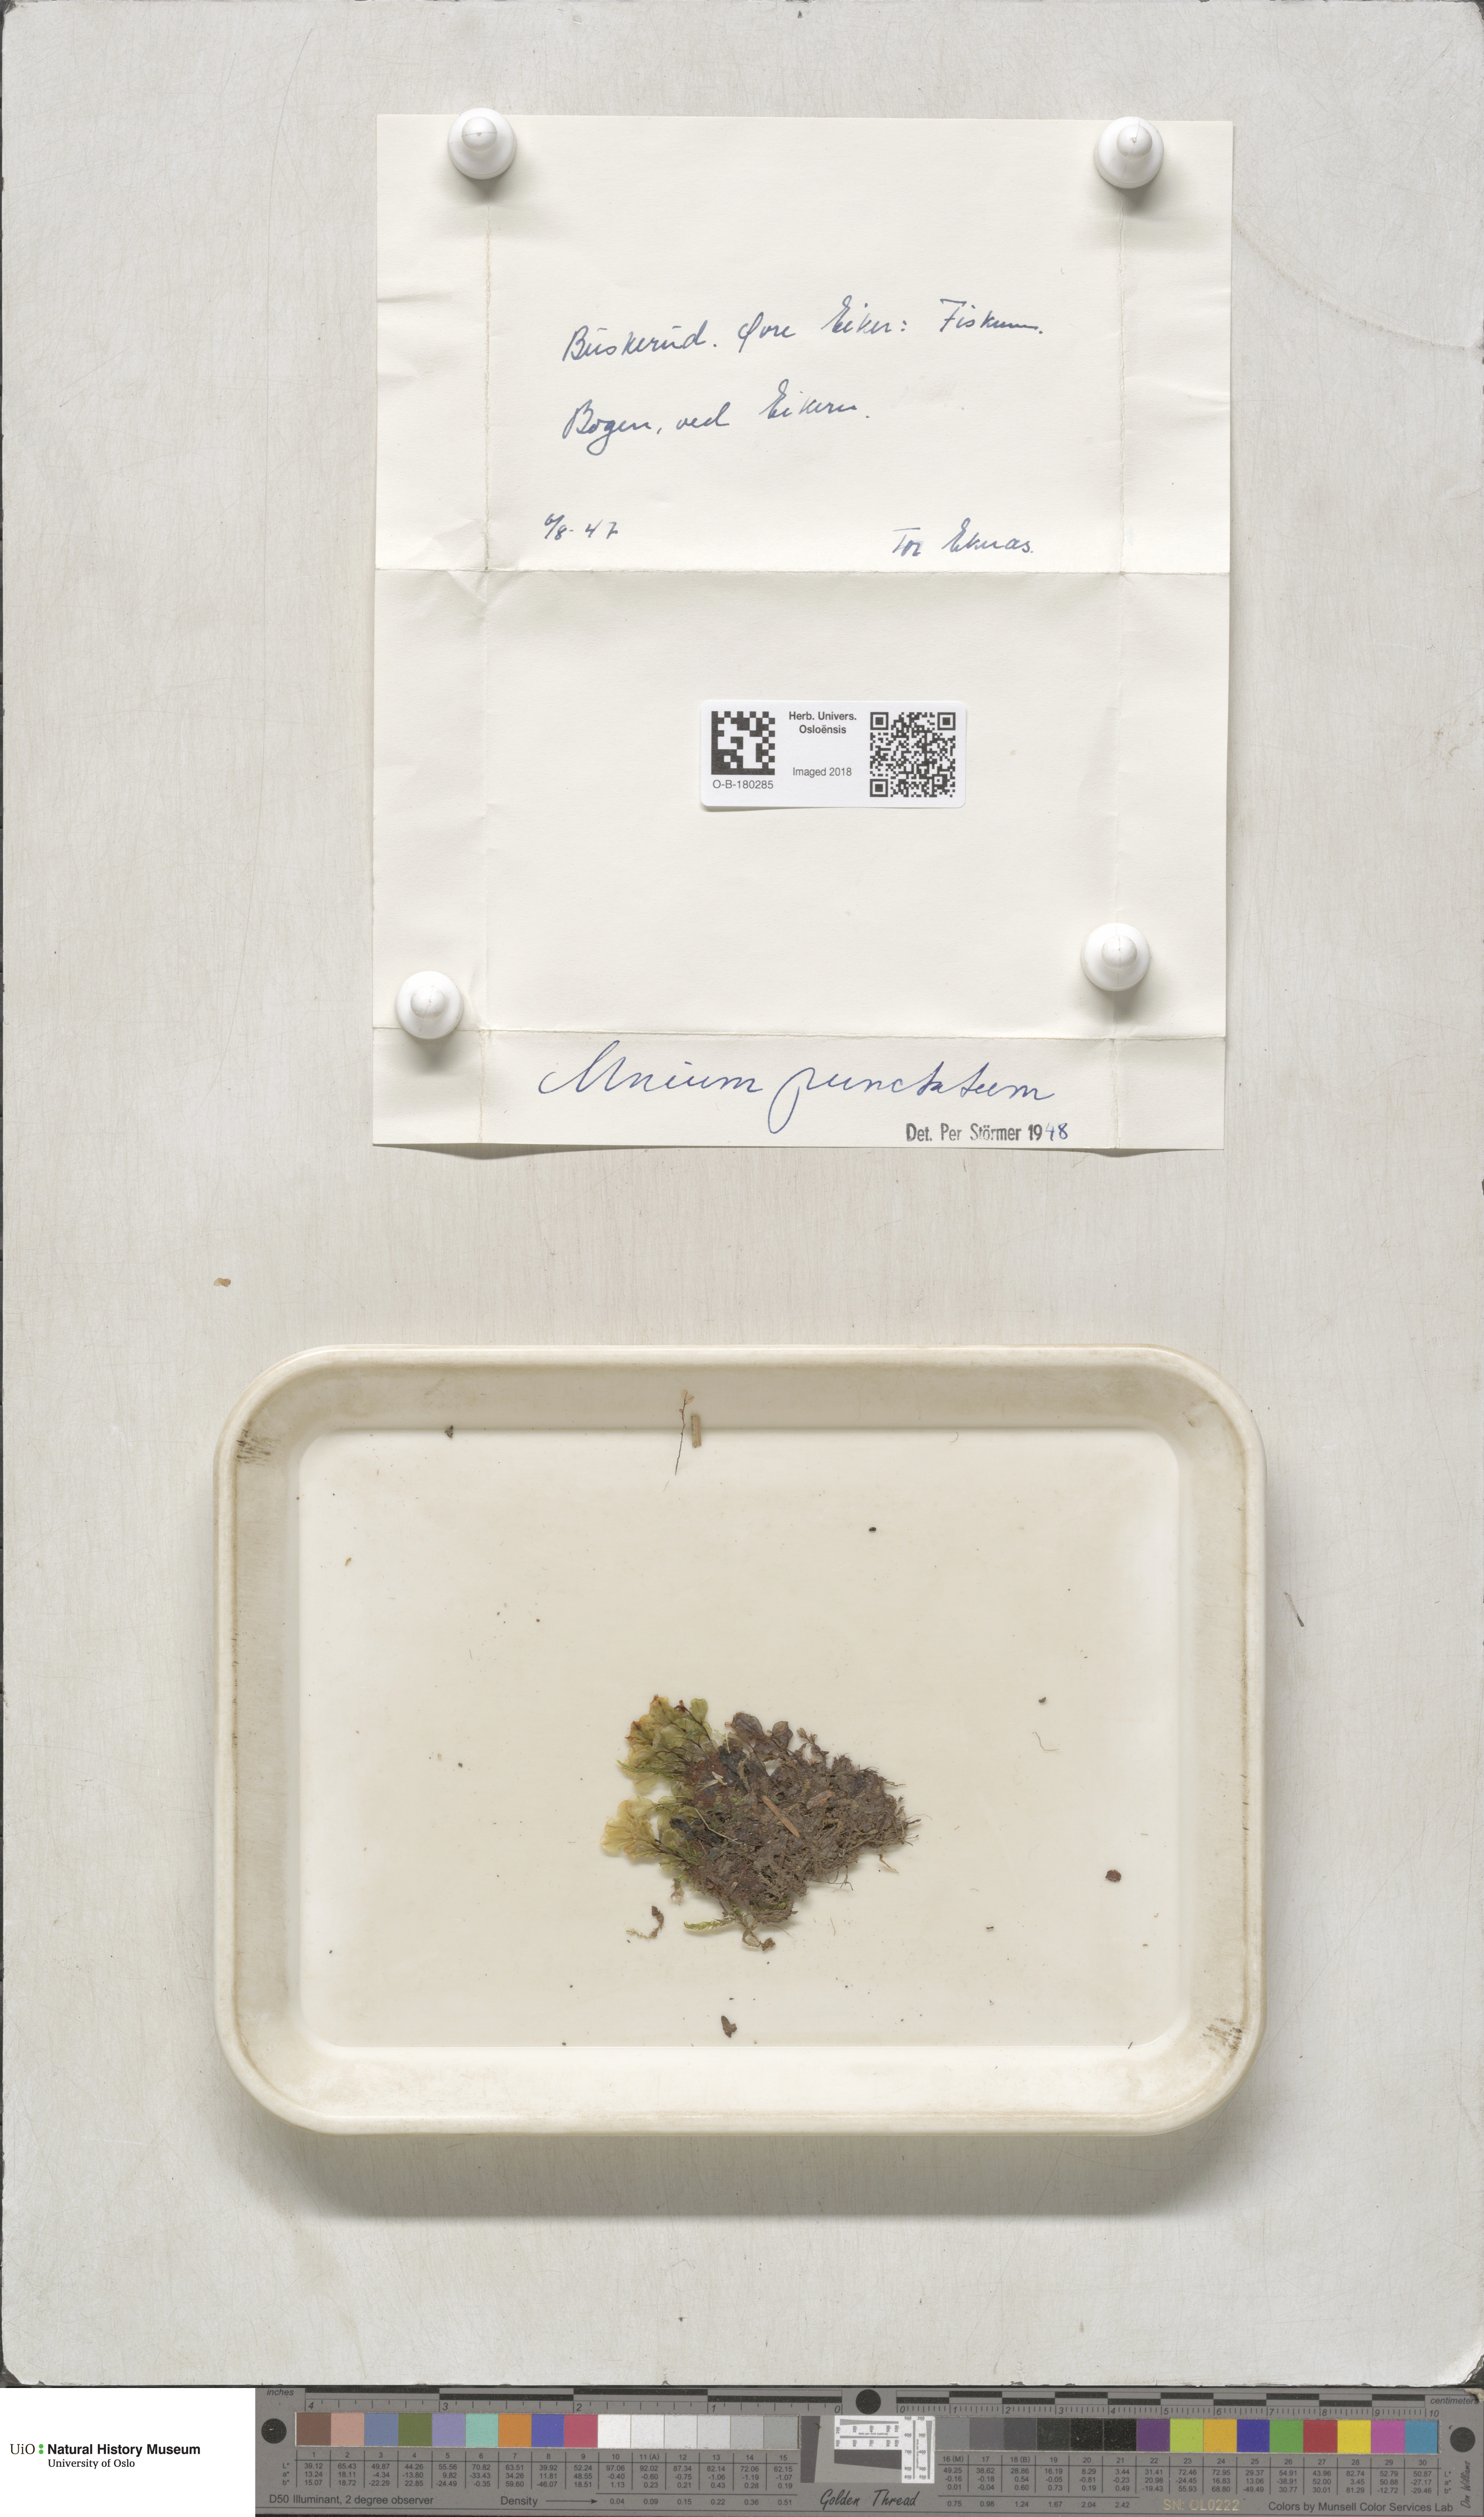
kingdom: Plantae
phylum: Bryophyta
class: Bryopsida
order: Bryales
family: Mniaceae
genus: Rhizomnium
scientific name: Rhizomnium punctatum
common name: Dotted leafy moss
